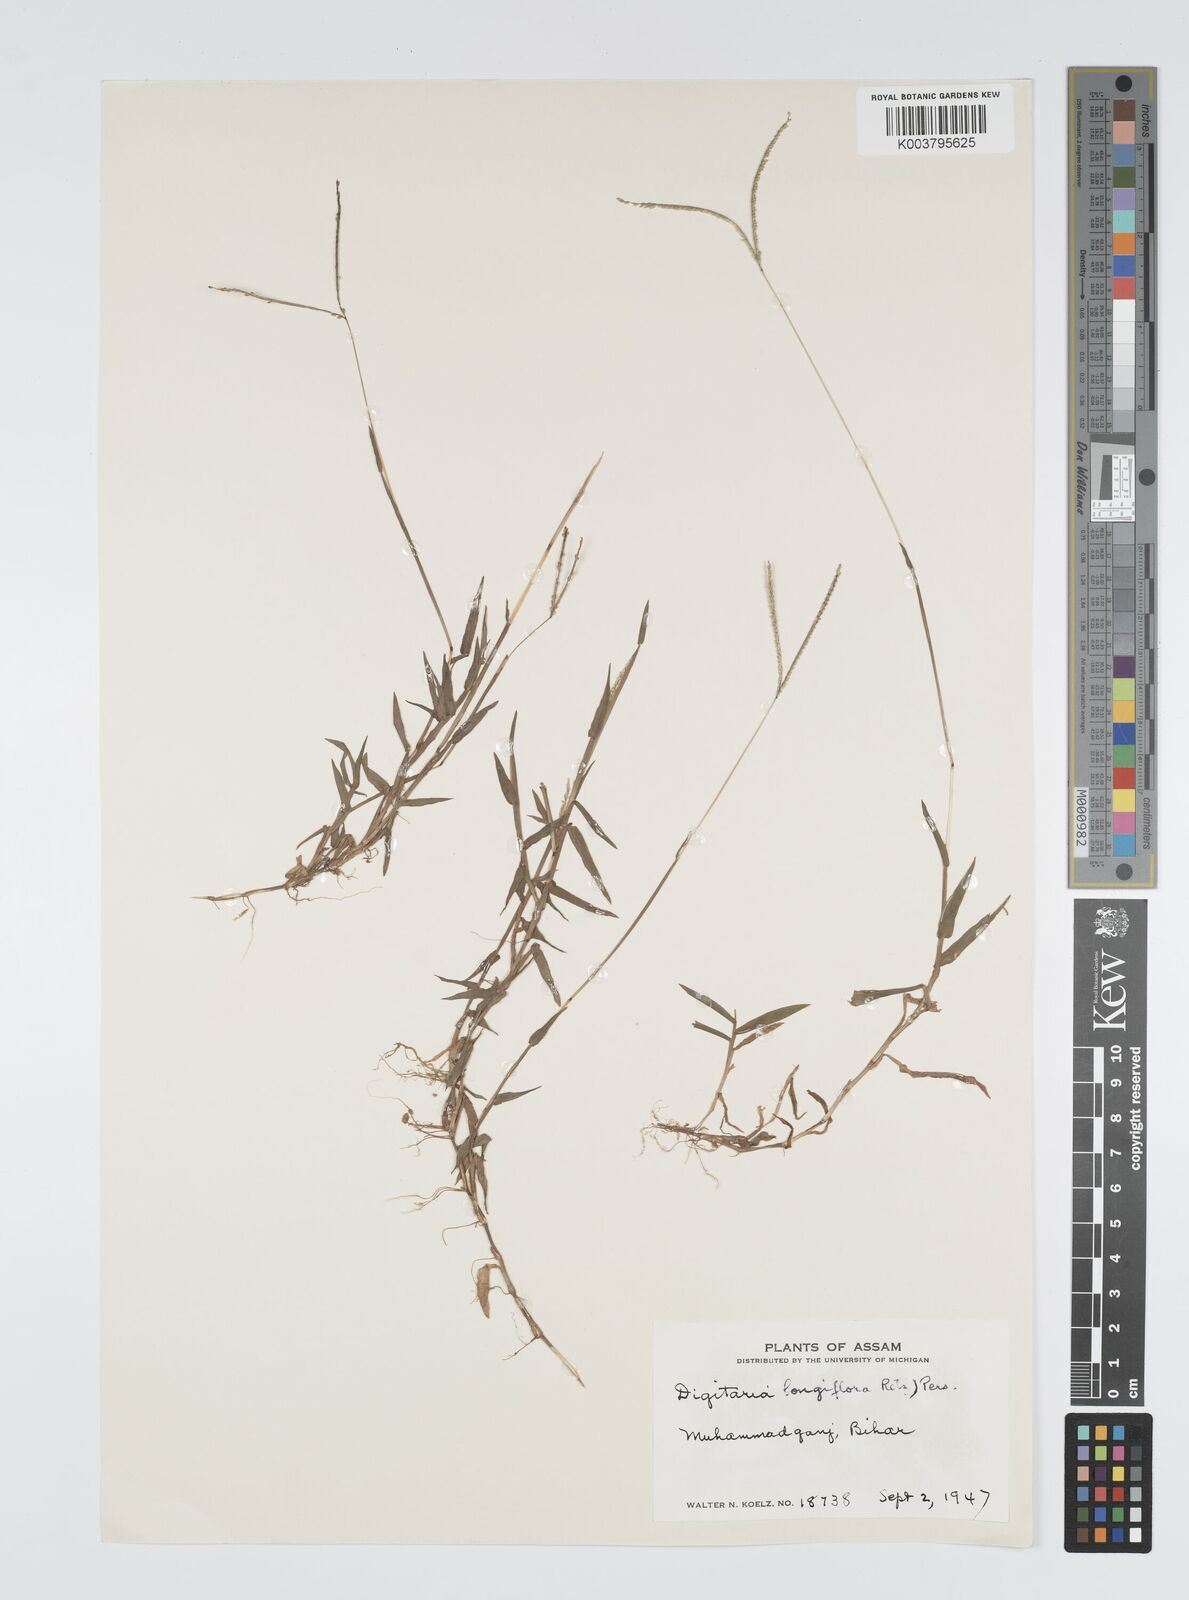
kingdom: Plantae
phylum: Tracheophyta
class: Liliopsida
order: Poales
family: Poaceae
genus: Digitaria
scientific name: Digitaria longiflora
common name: Wire crabgrass
